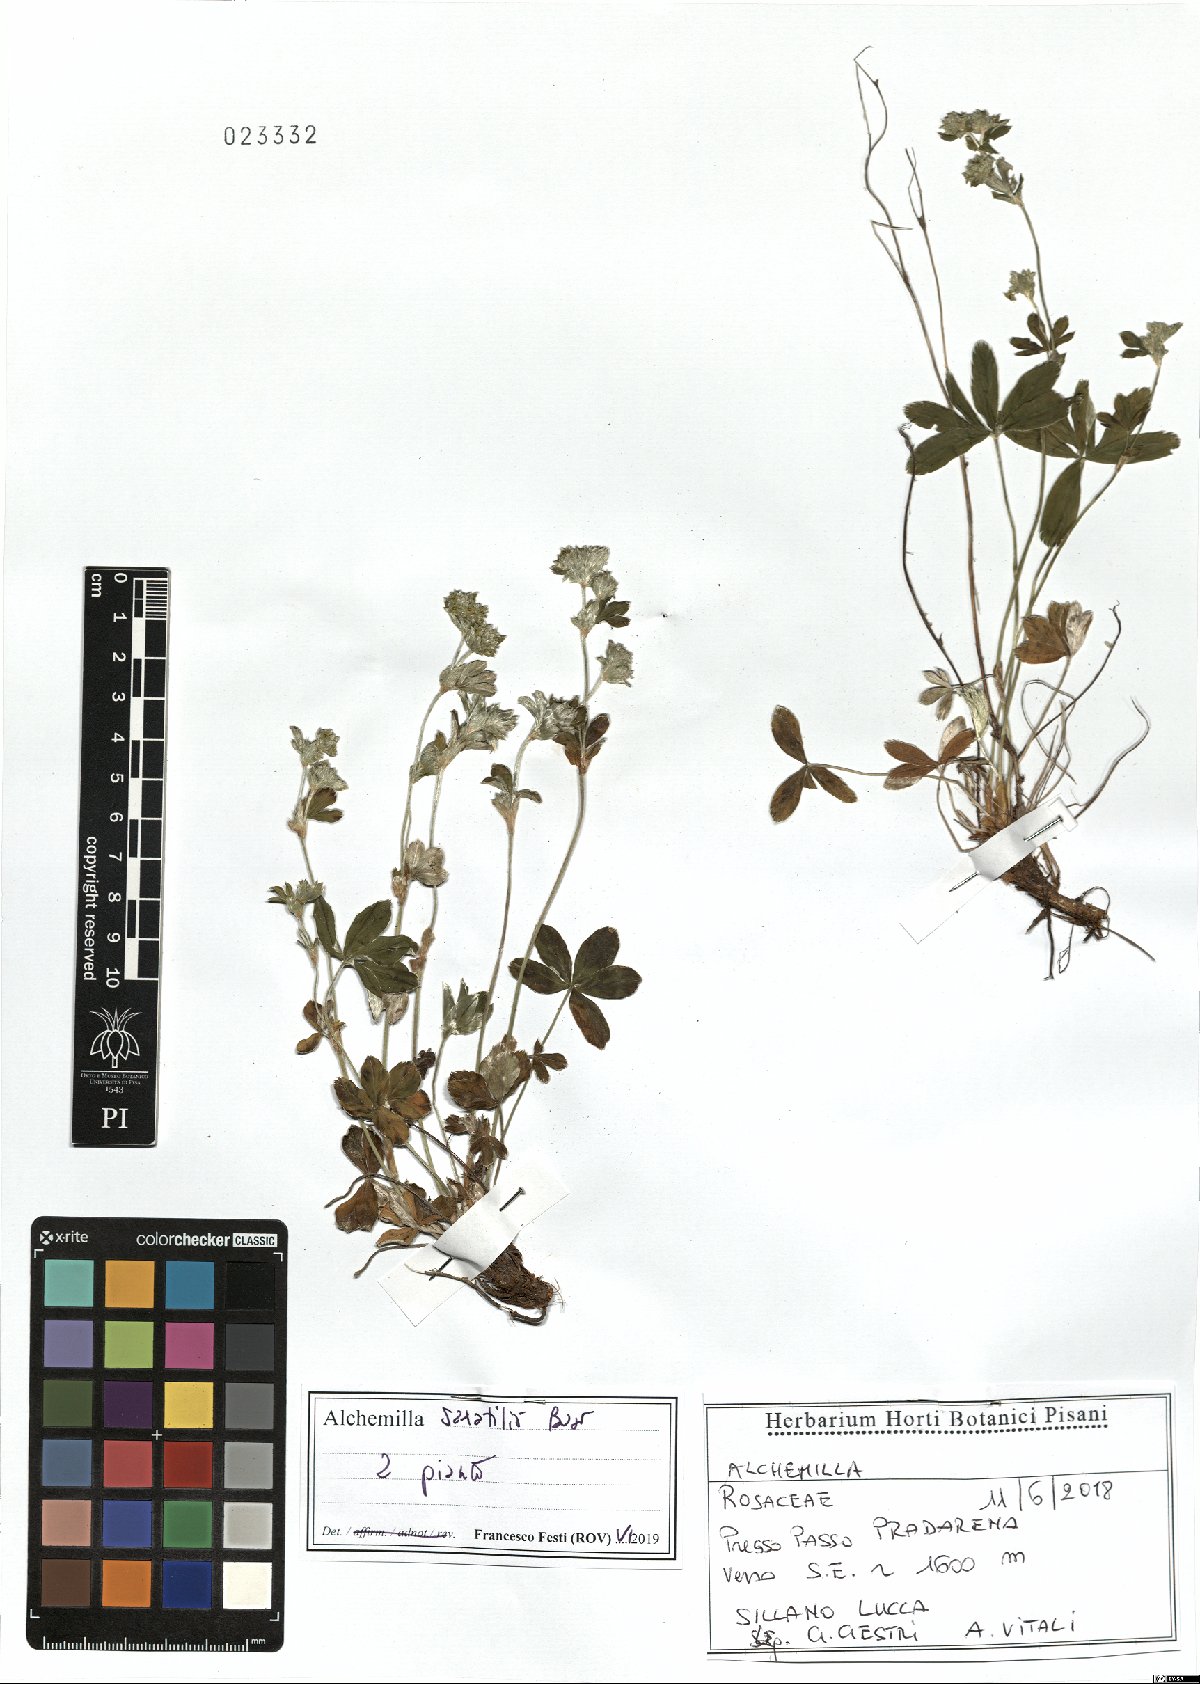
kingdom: Plantae
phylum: Tracheophyta
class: Magnoliopsida
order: Rosales
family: Rosaceae
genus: Alchemilla
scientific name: Alchemilla saxatilis
